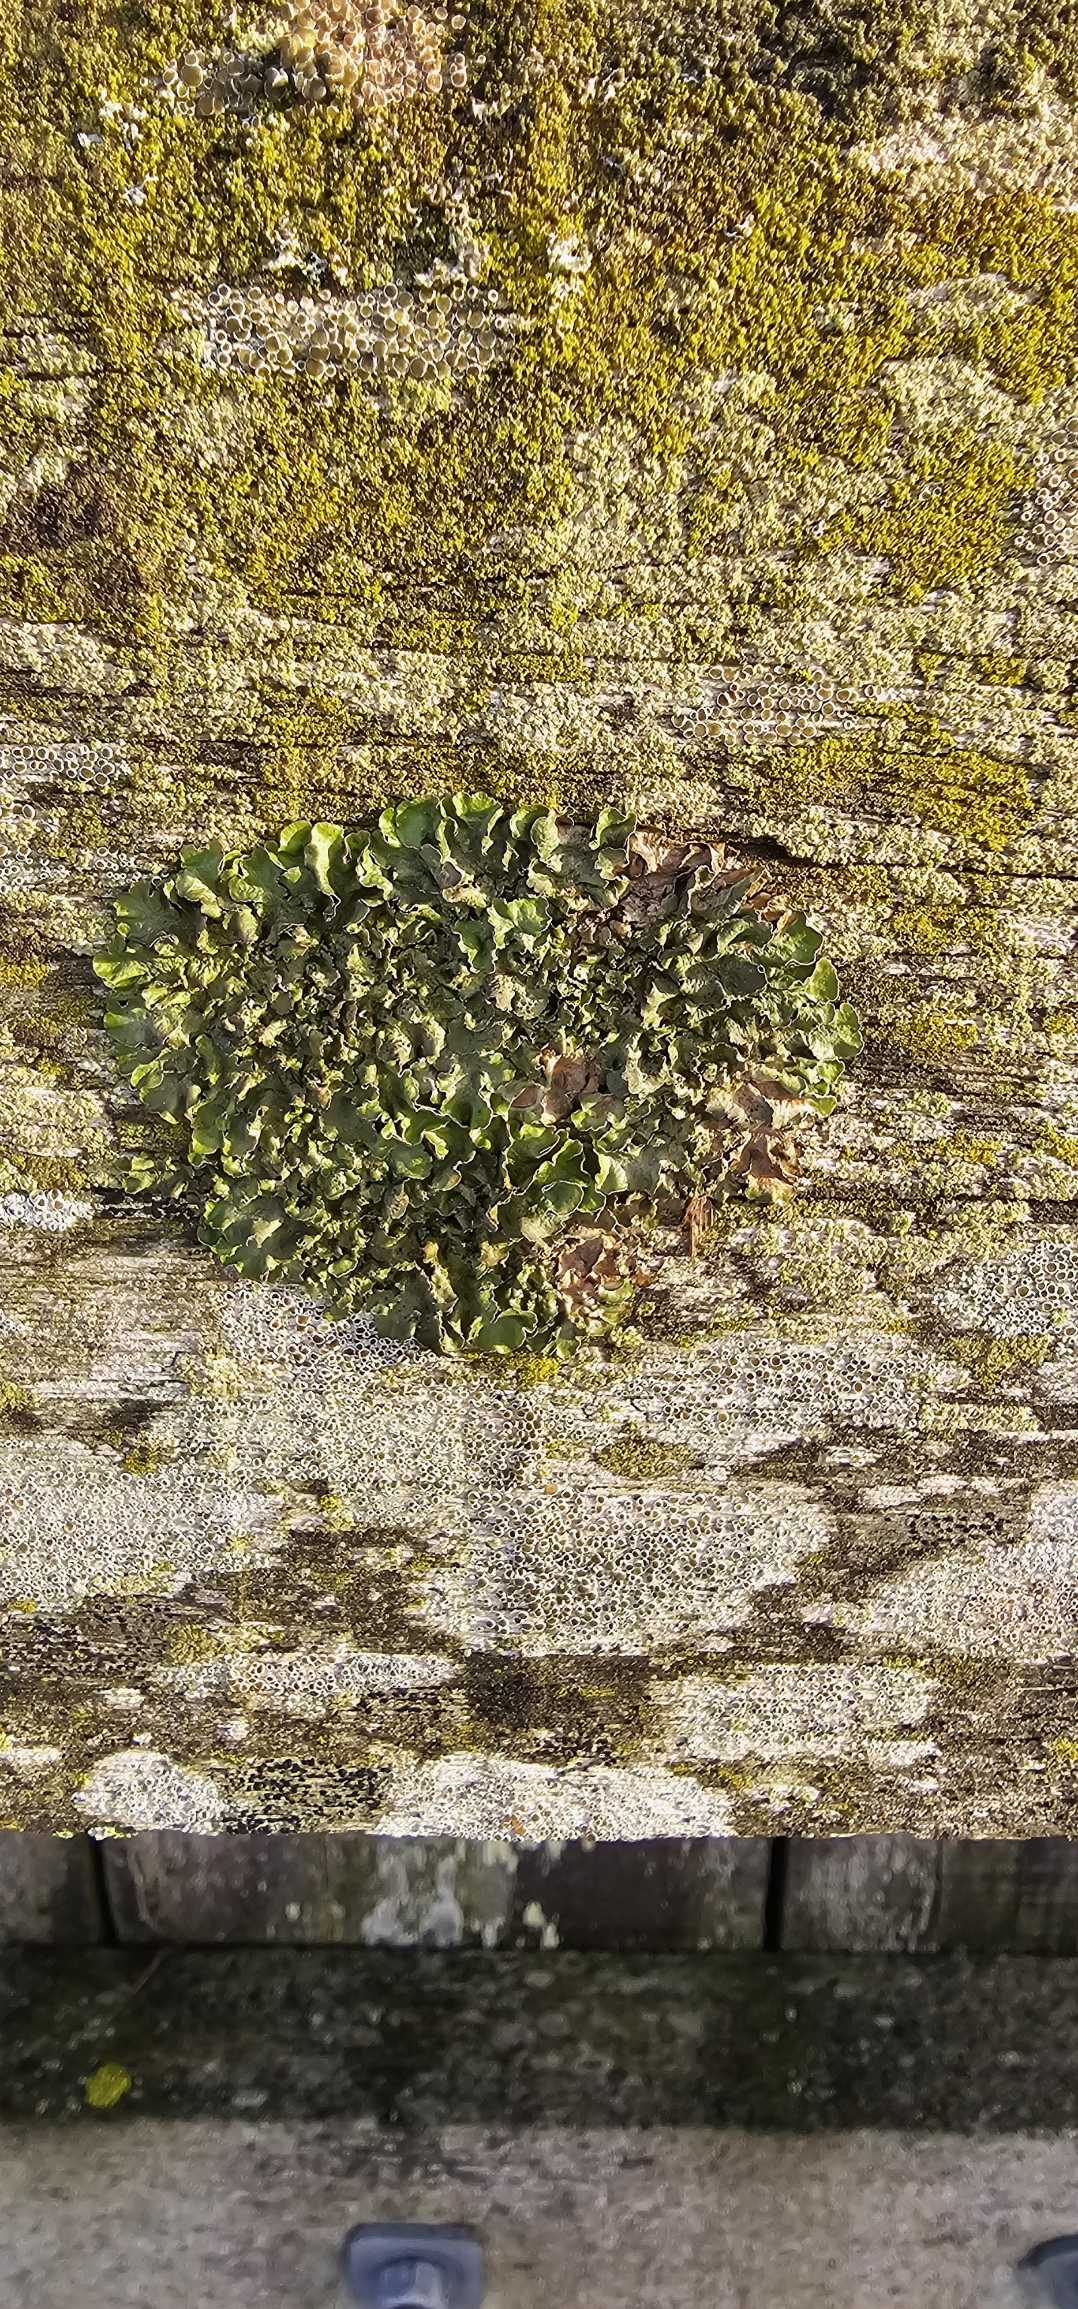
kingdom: Fungi
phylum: Ascomycota
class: Lecanoromycetes
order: Lecanorales
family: Parmeliaceae
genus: Pleurosticta
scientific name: Pleurosticta acetabulum
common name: Stor skållav
